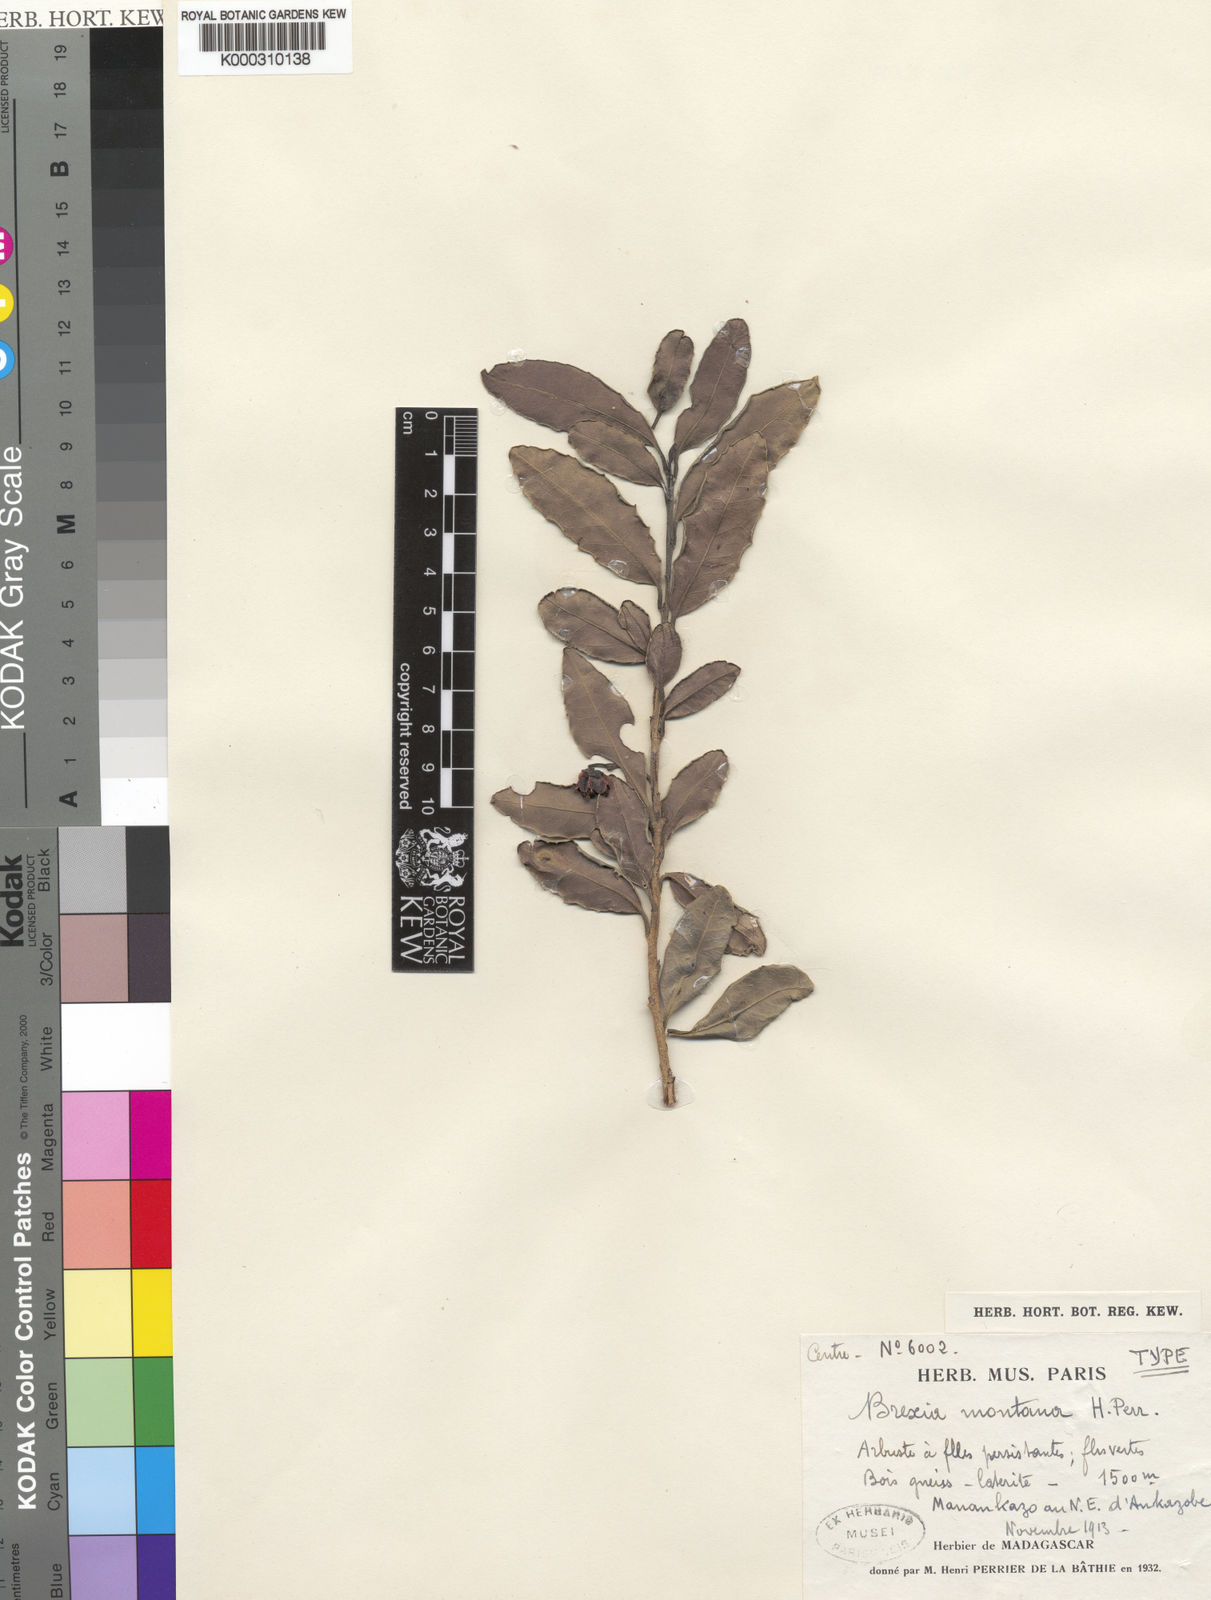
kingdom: Plantae
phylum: Tracheophyta
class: Magnoliopsida
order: Celastrales
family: Celastraceae
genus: Brexia
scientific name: Brexia montana
